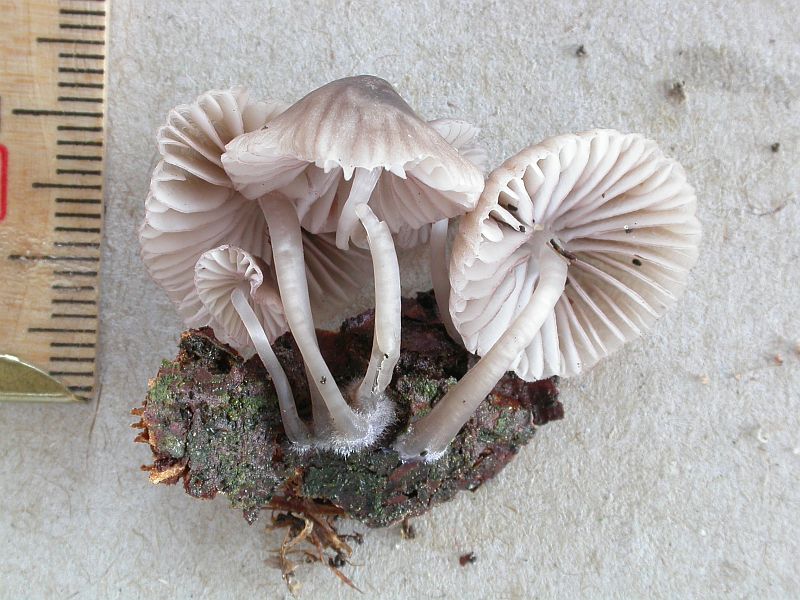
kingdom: Fungi
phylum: Basidiomycota
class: Agaricomycetes
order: Agaricales
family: Mycenaceae
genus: Mycena
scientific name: Mycena rubromarginata
